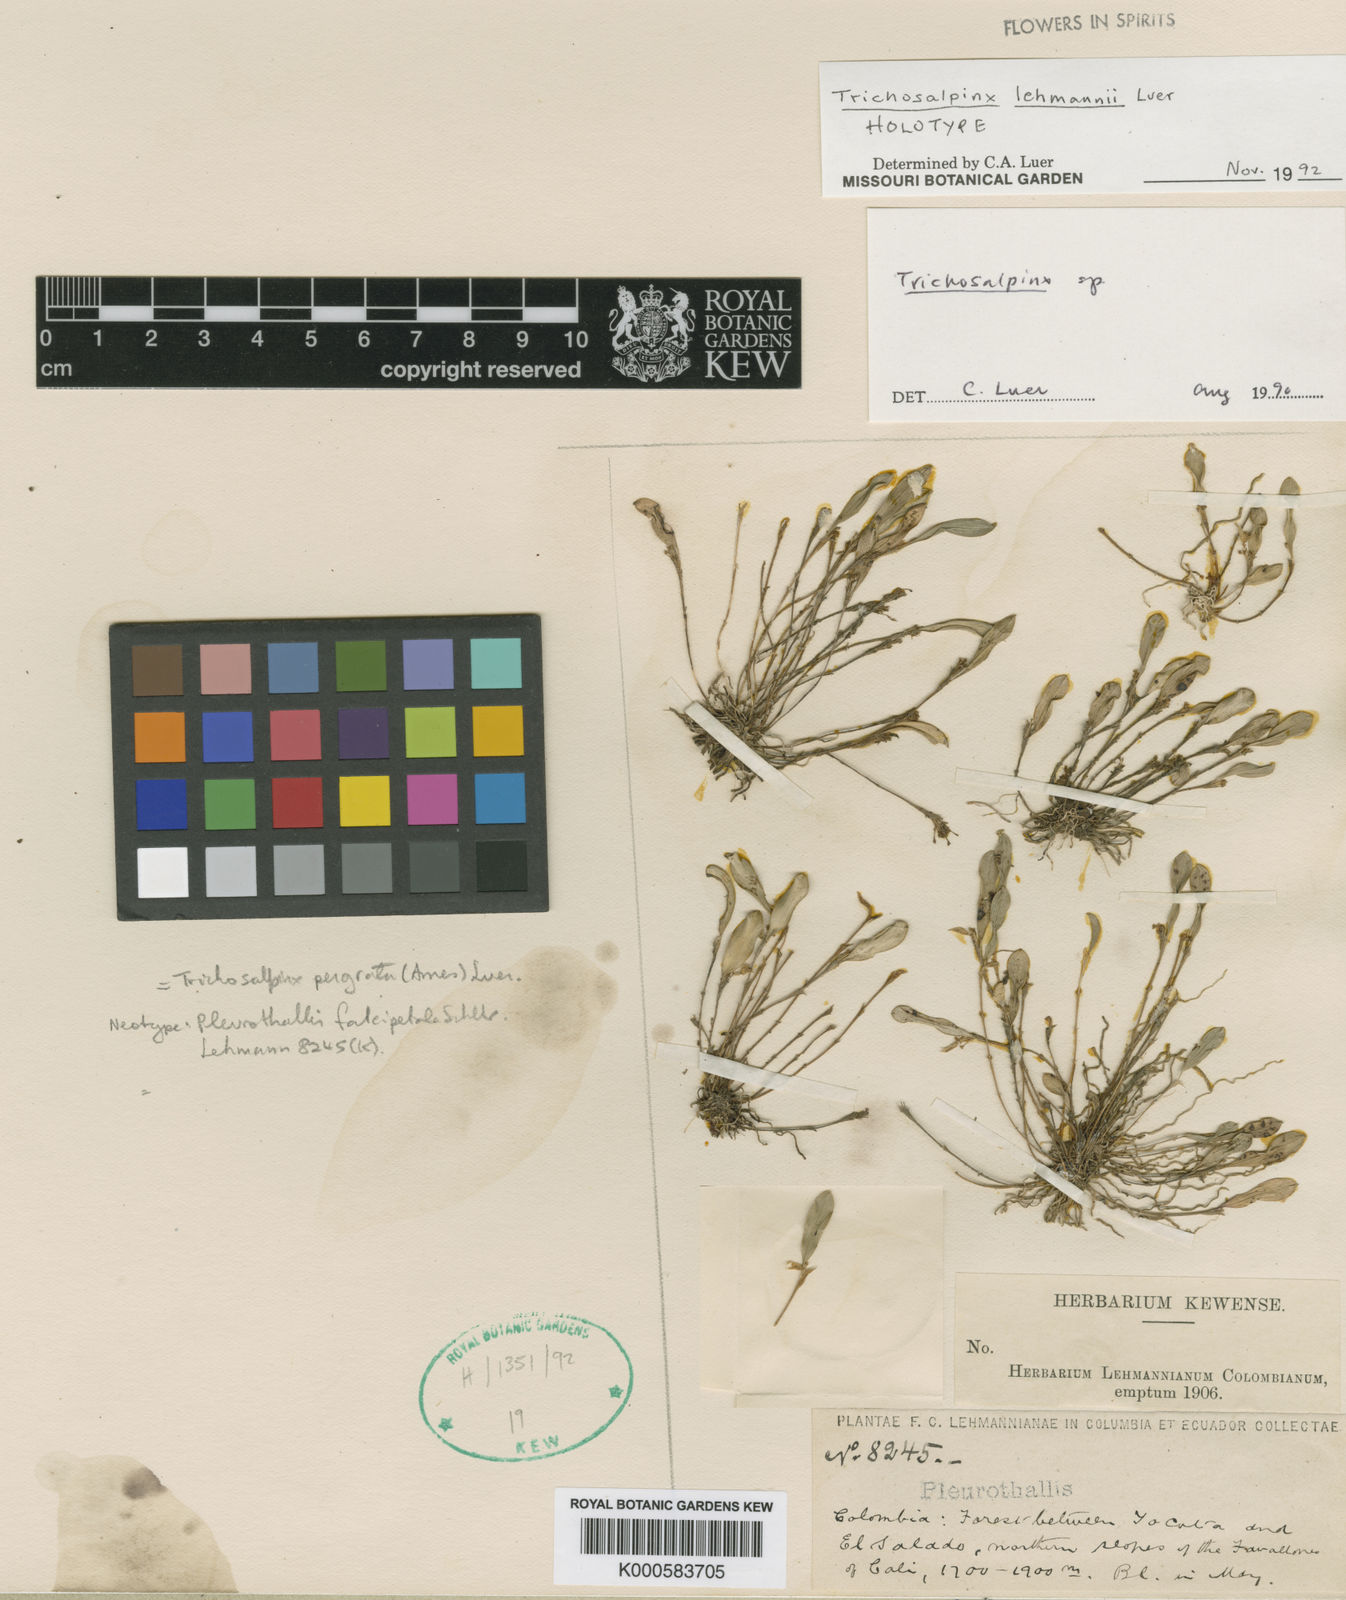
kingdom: Plantae
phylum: Tracheophyta
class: Liliopsida
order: Asparagales
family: Orchidaceae
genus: Stellamaris
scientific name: Stellamaris pergrata
